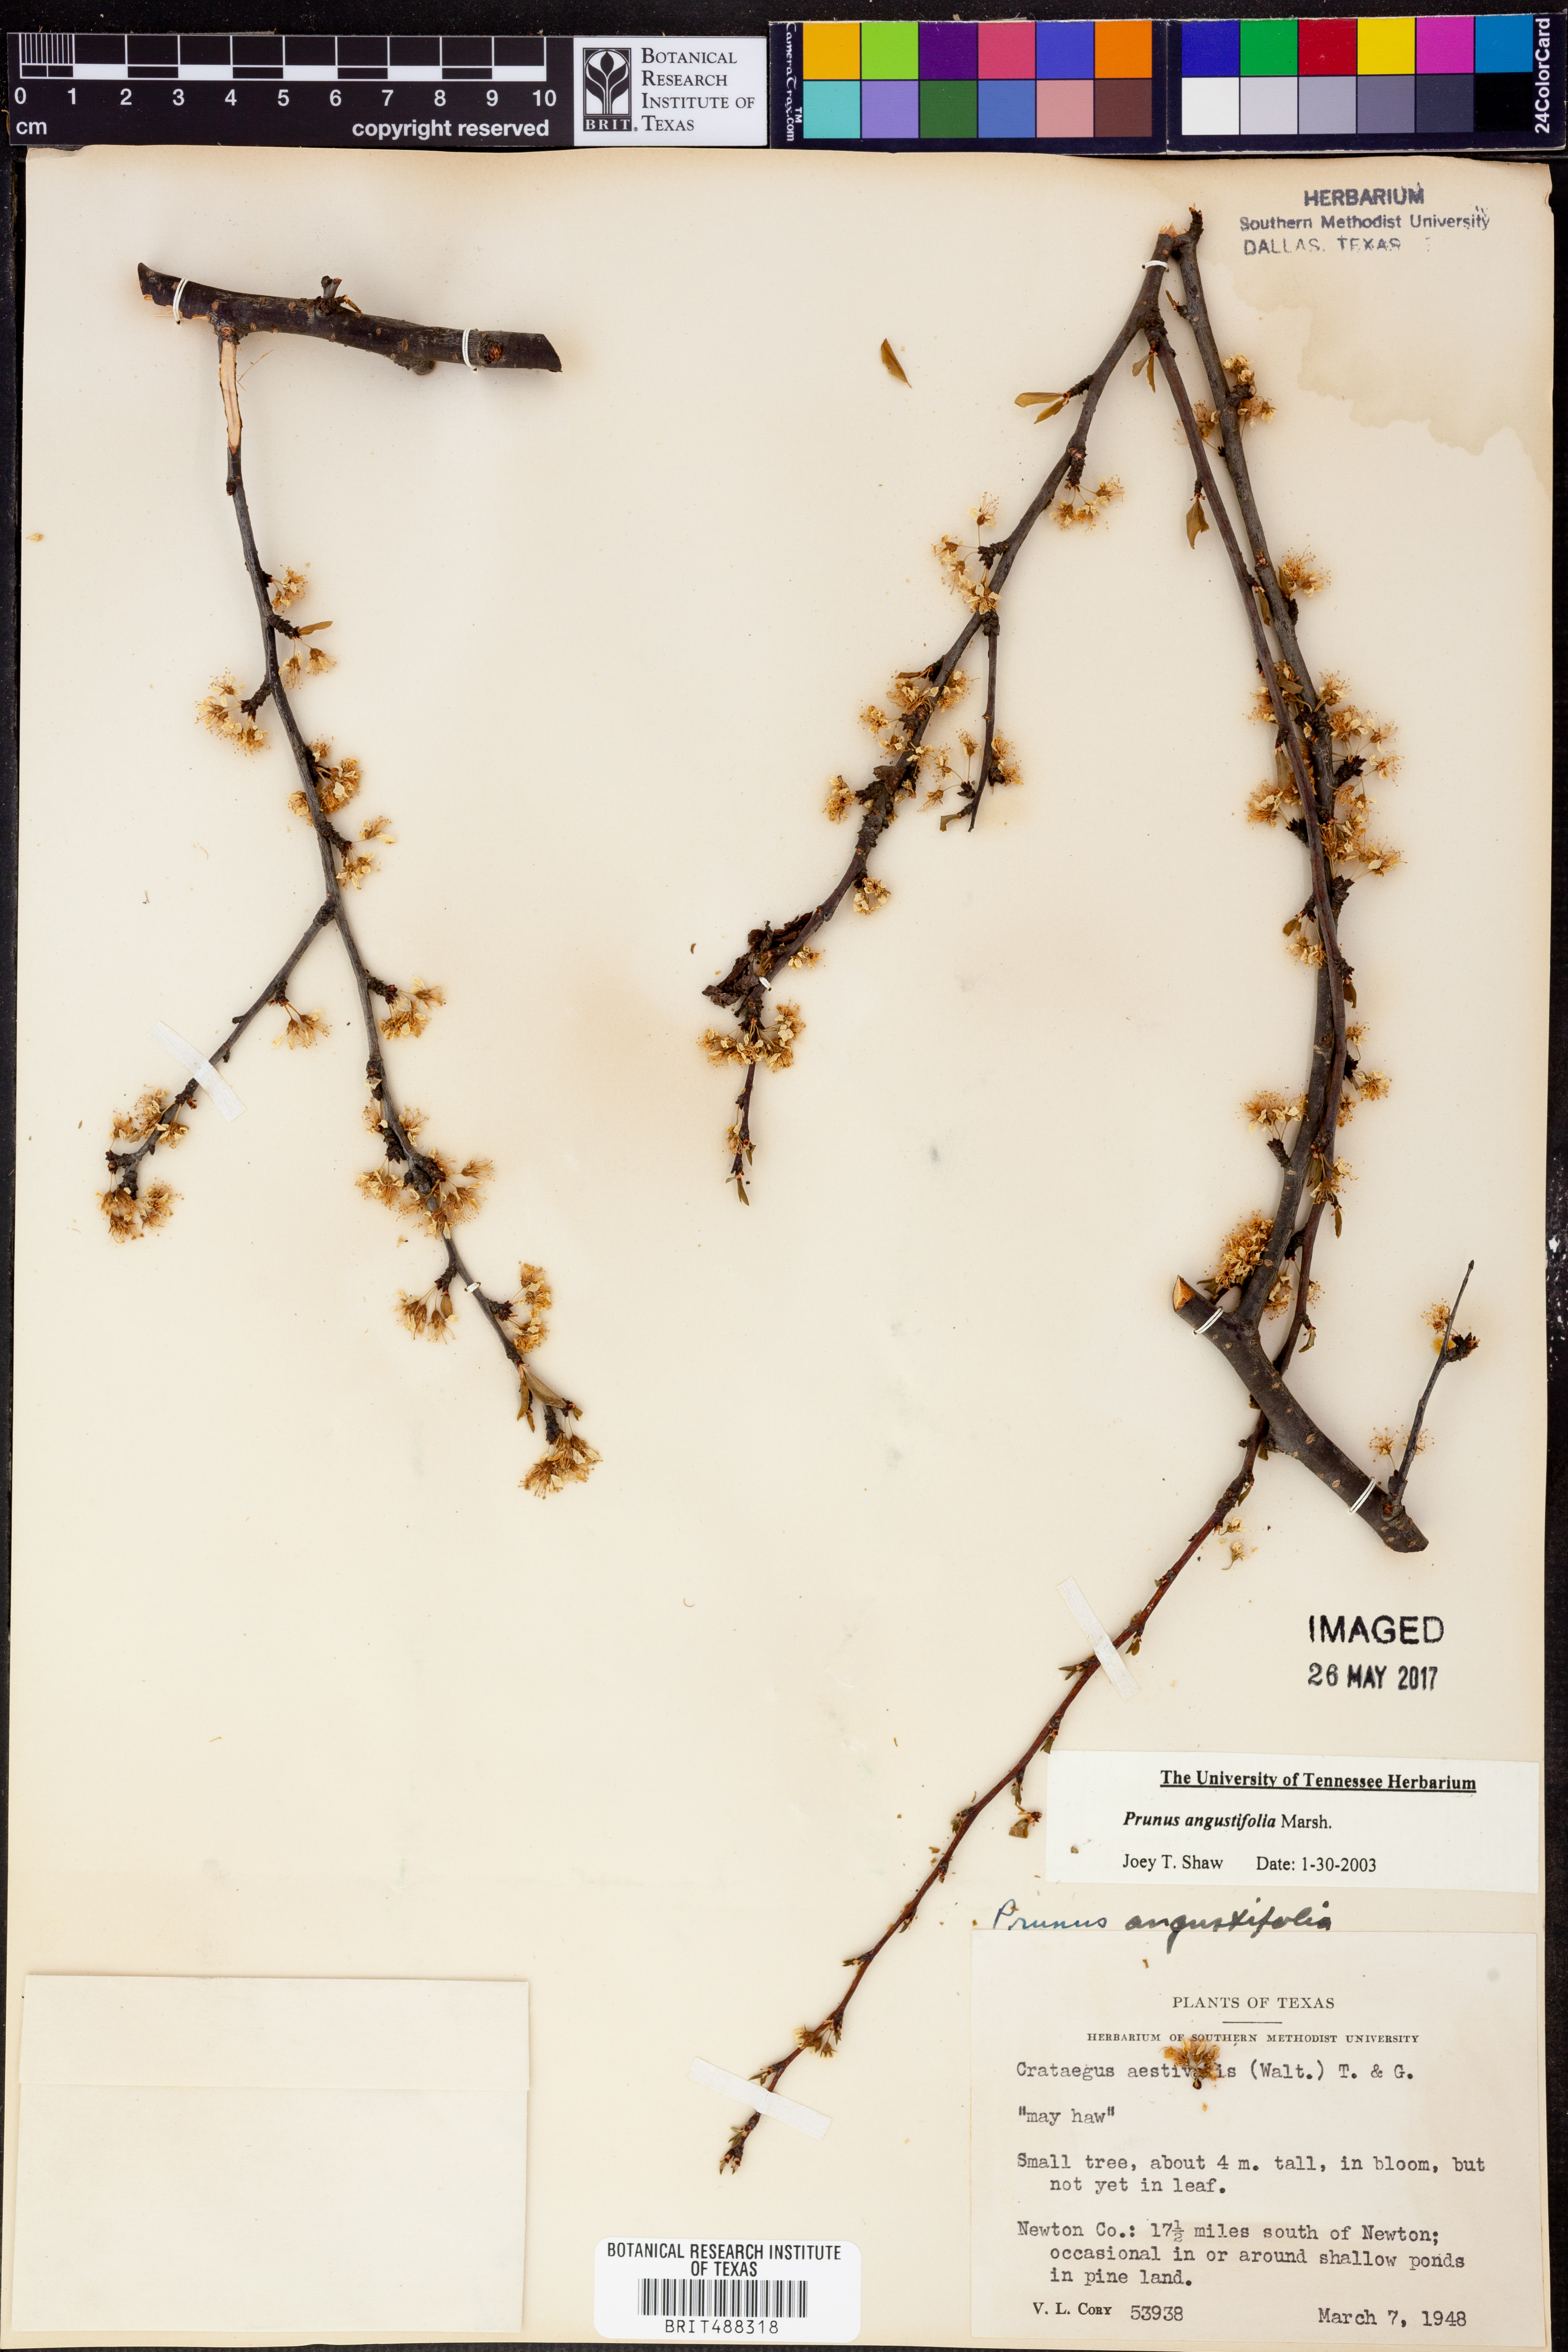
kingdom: Plantae
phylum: Tracheophyta
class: Magnoliopsida
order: Rosales
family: Rosaceae
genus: Prunus
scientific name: Prunus angustifolia
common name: Cherokee plum
